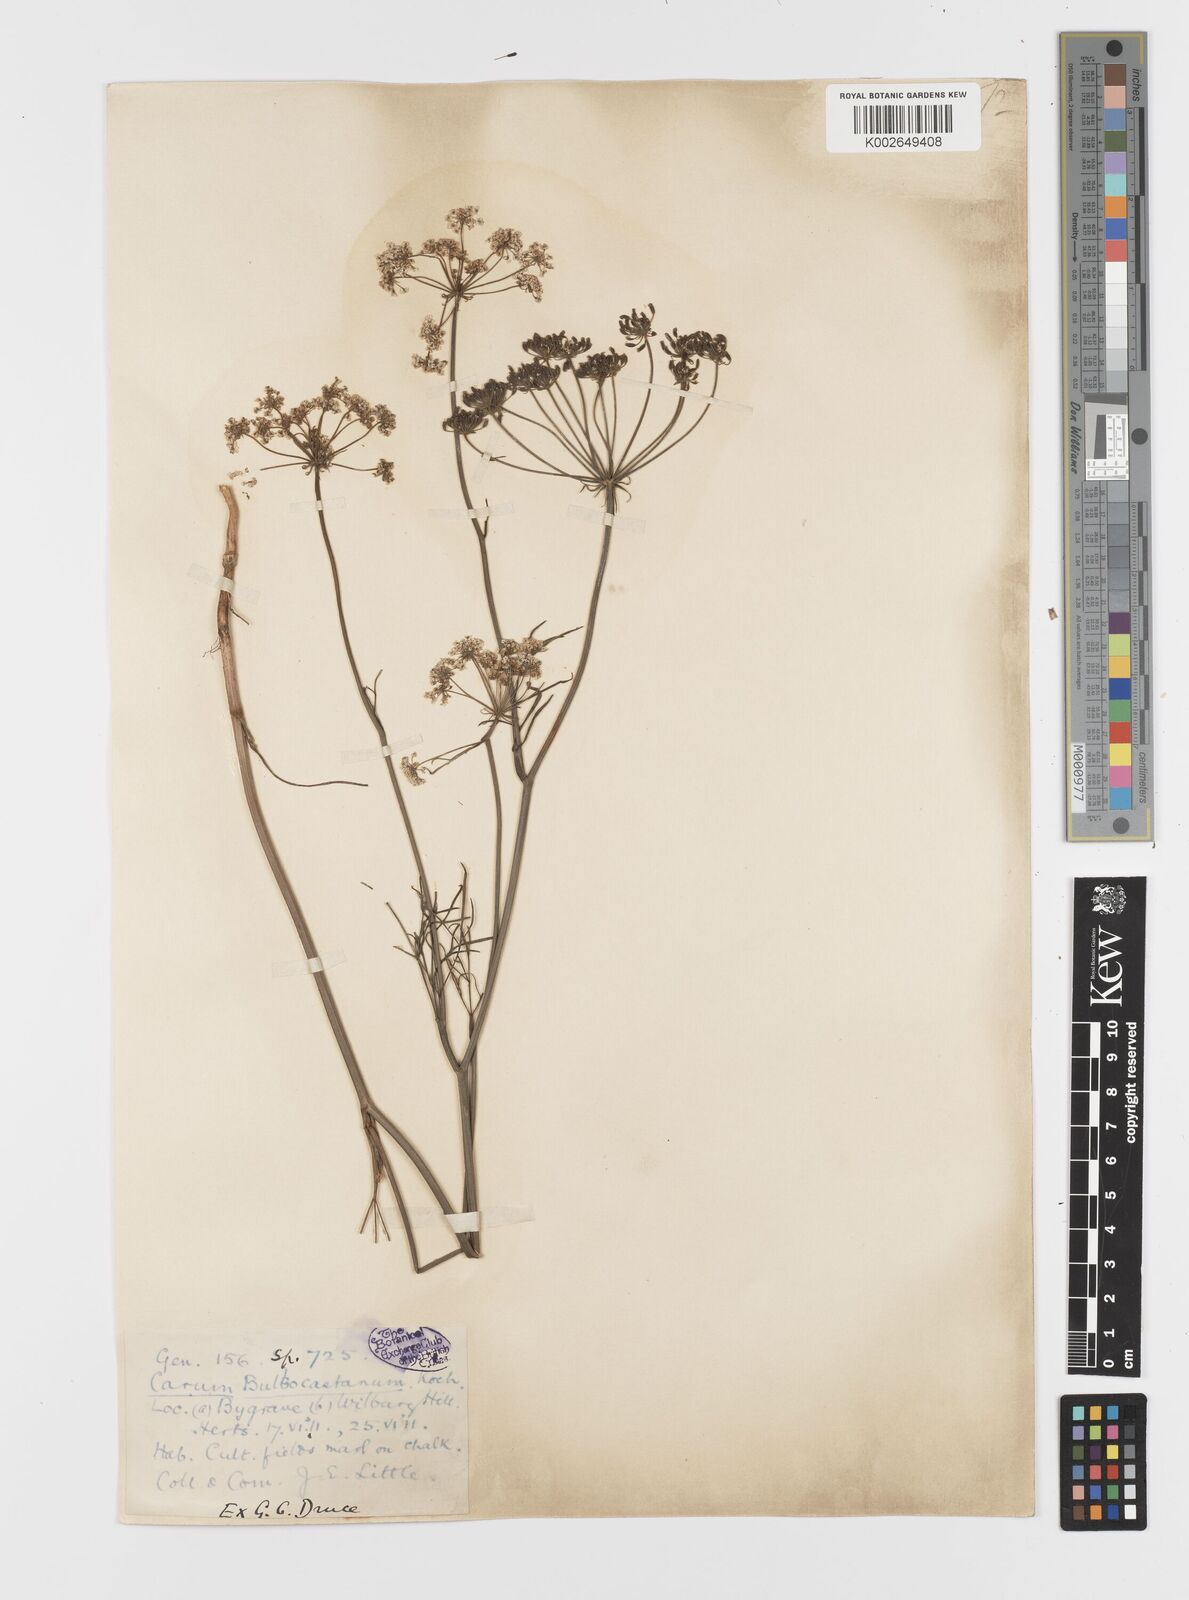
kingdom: Plantae
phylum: Tracheophyta
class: Magnoliopsida
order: Apiales
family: Apiaceae
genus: Bunium
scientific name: Bunium bulbocastanum
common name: Great pignut
